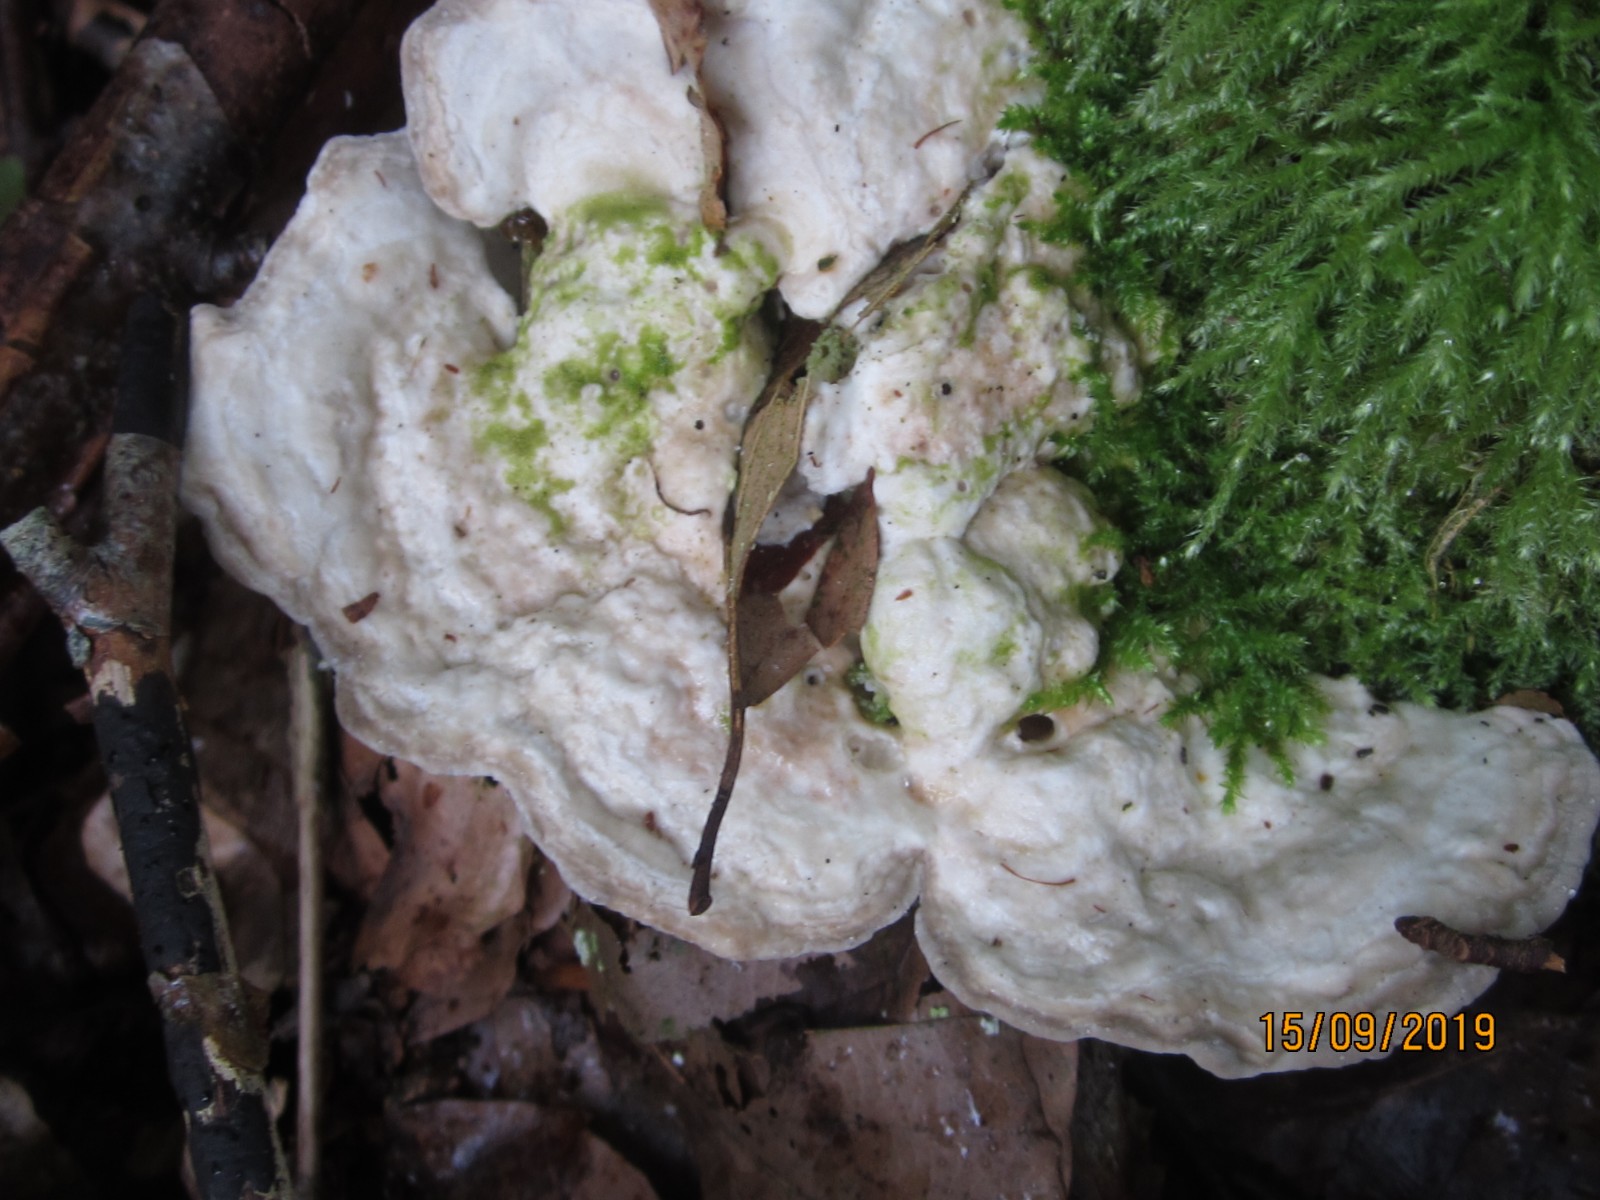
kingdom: Fungi
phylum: Basidiomycota
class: Agaricomycetes
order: Polyporales
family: Polyporaceae
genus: Trametes
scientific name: Trametes gibbosa
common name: puklet læderporesvamp
